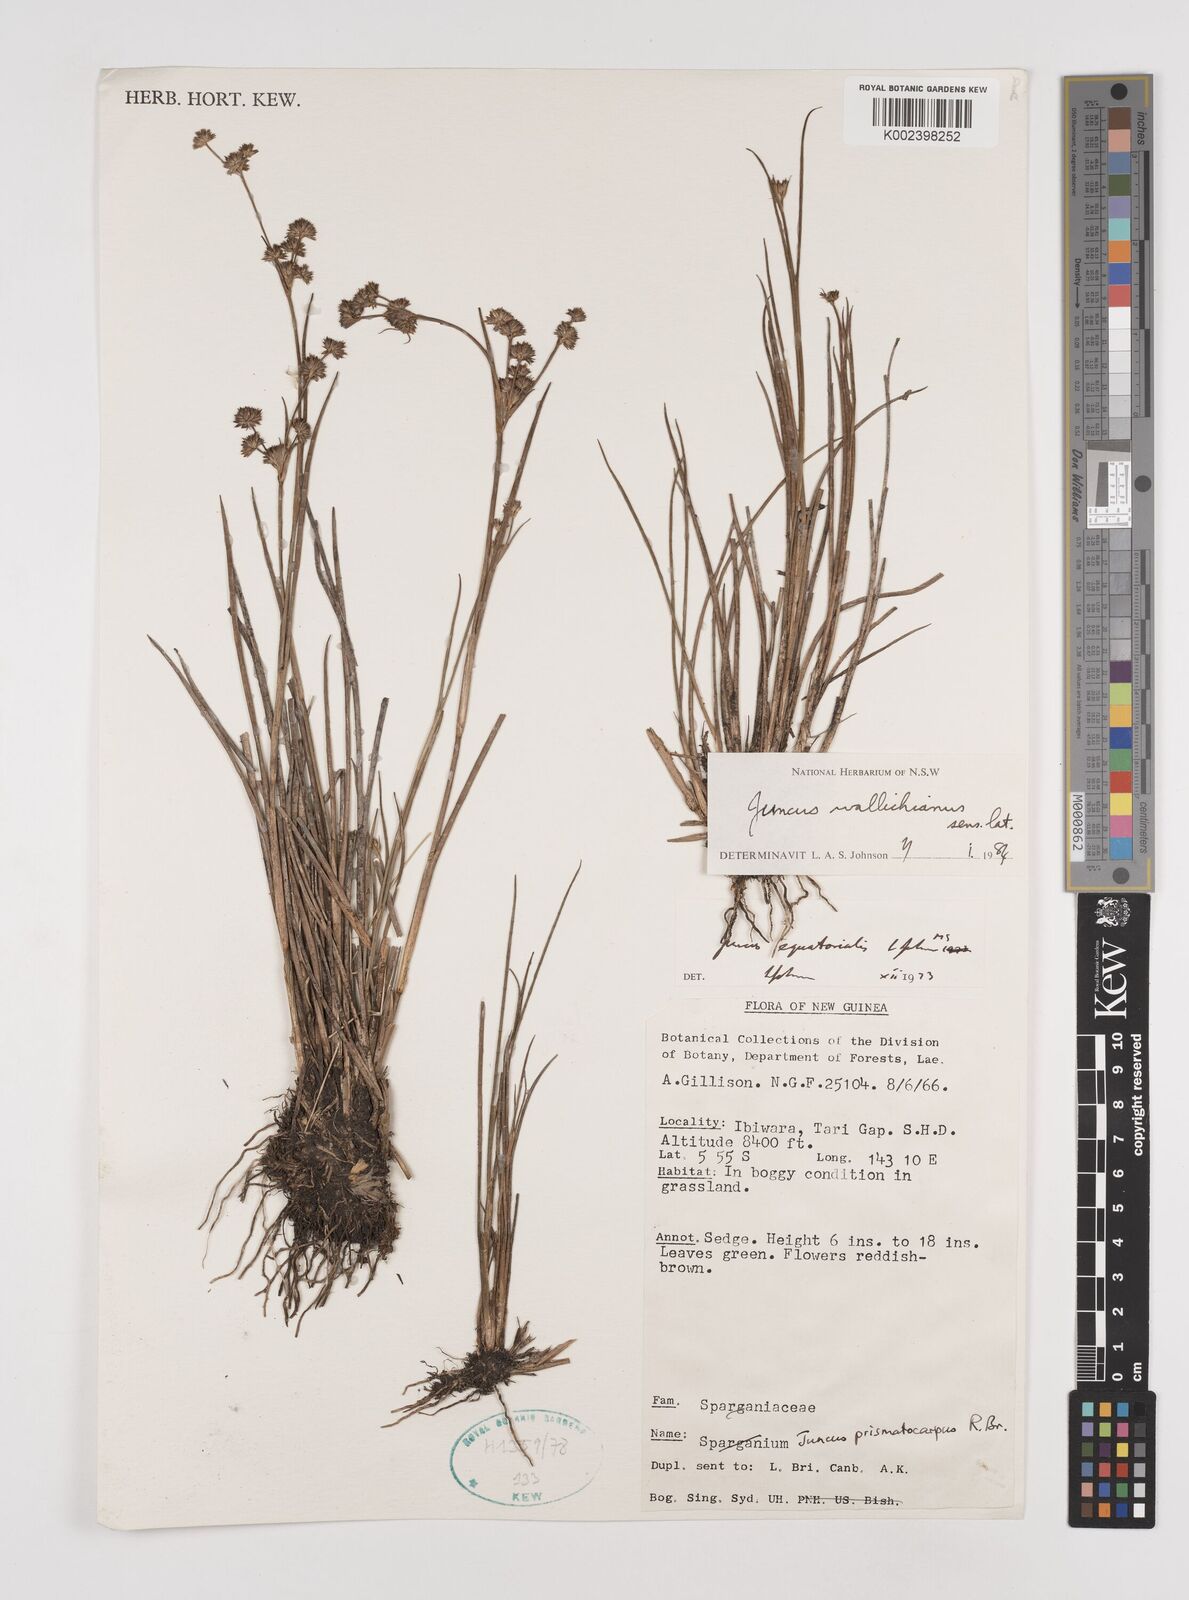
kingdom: Plantae
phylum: Tracheophyta
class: Liliopsida
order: Poales
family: Juncaceae
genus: Juncus
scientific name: Juncus wallichianus
